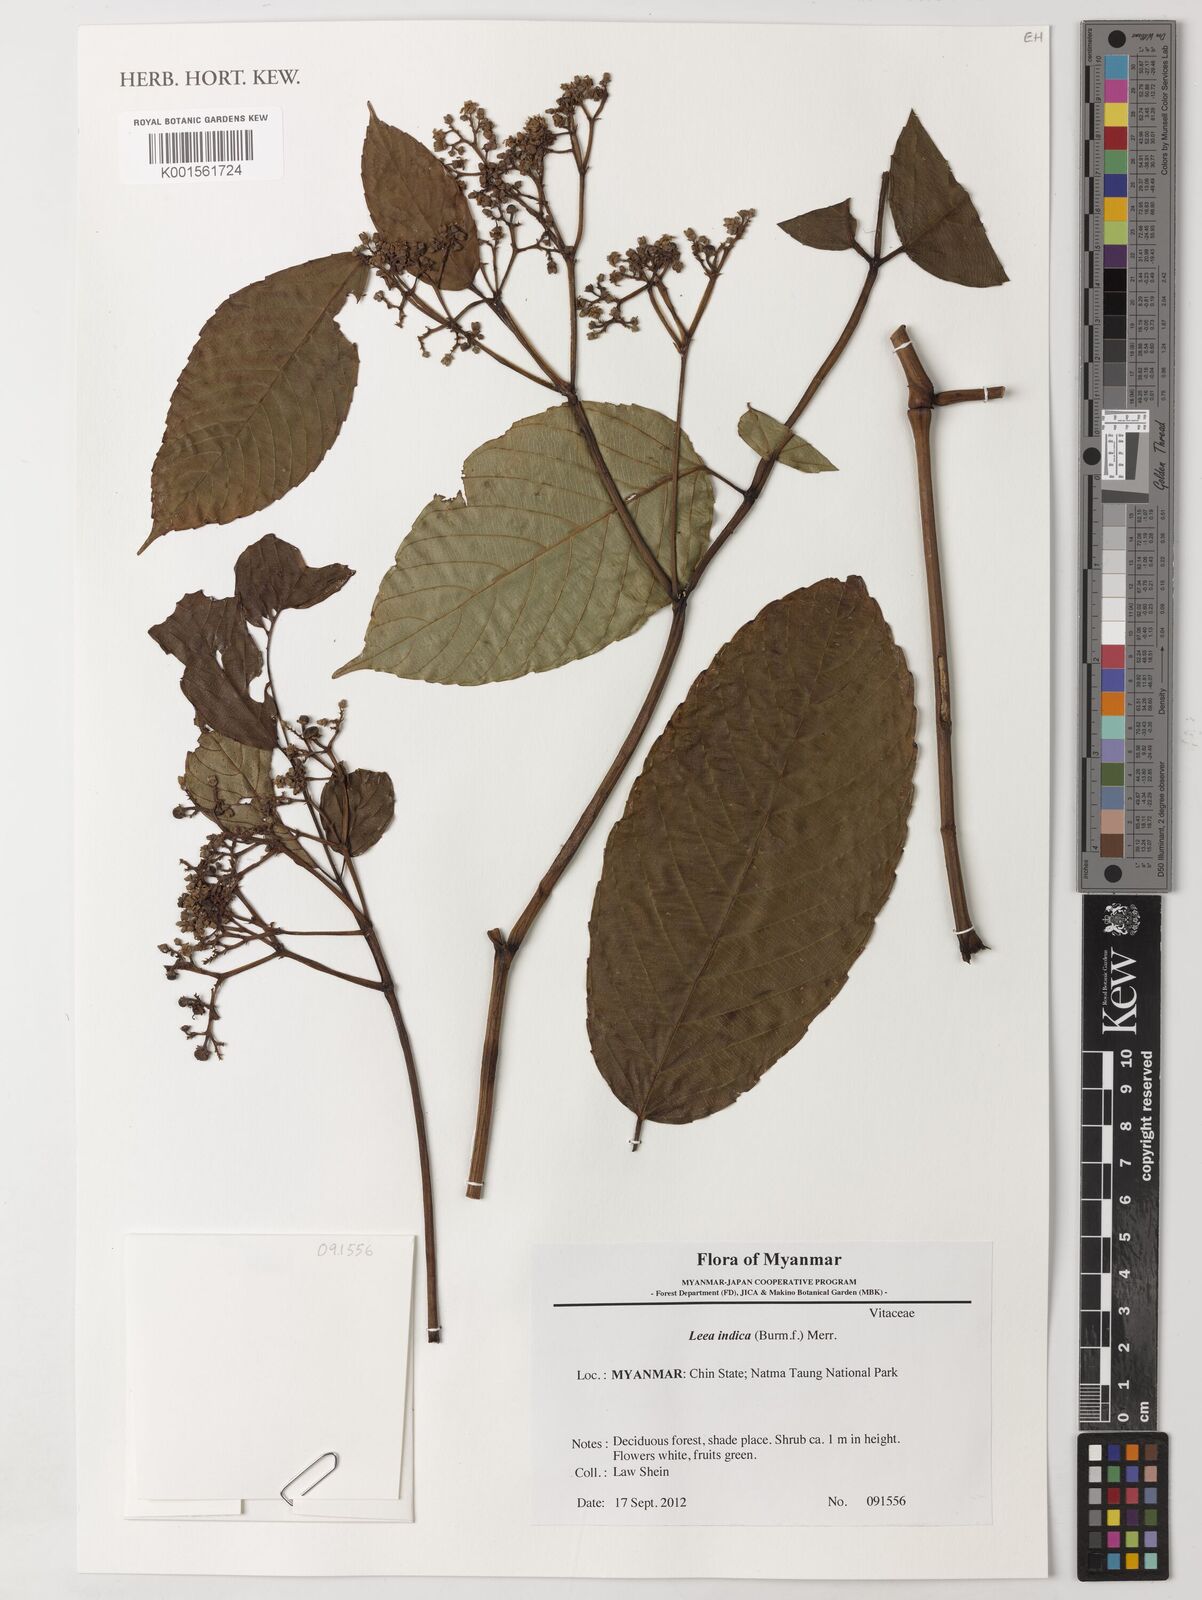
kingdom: Plantae
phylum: Tracheophyta
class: Magnoliopsida
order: Vitales
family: Vitaceae
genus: Leea
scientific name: Leea indica
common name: Bandicoot-berry
